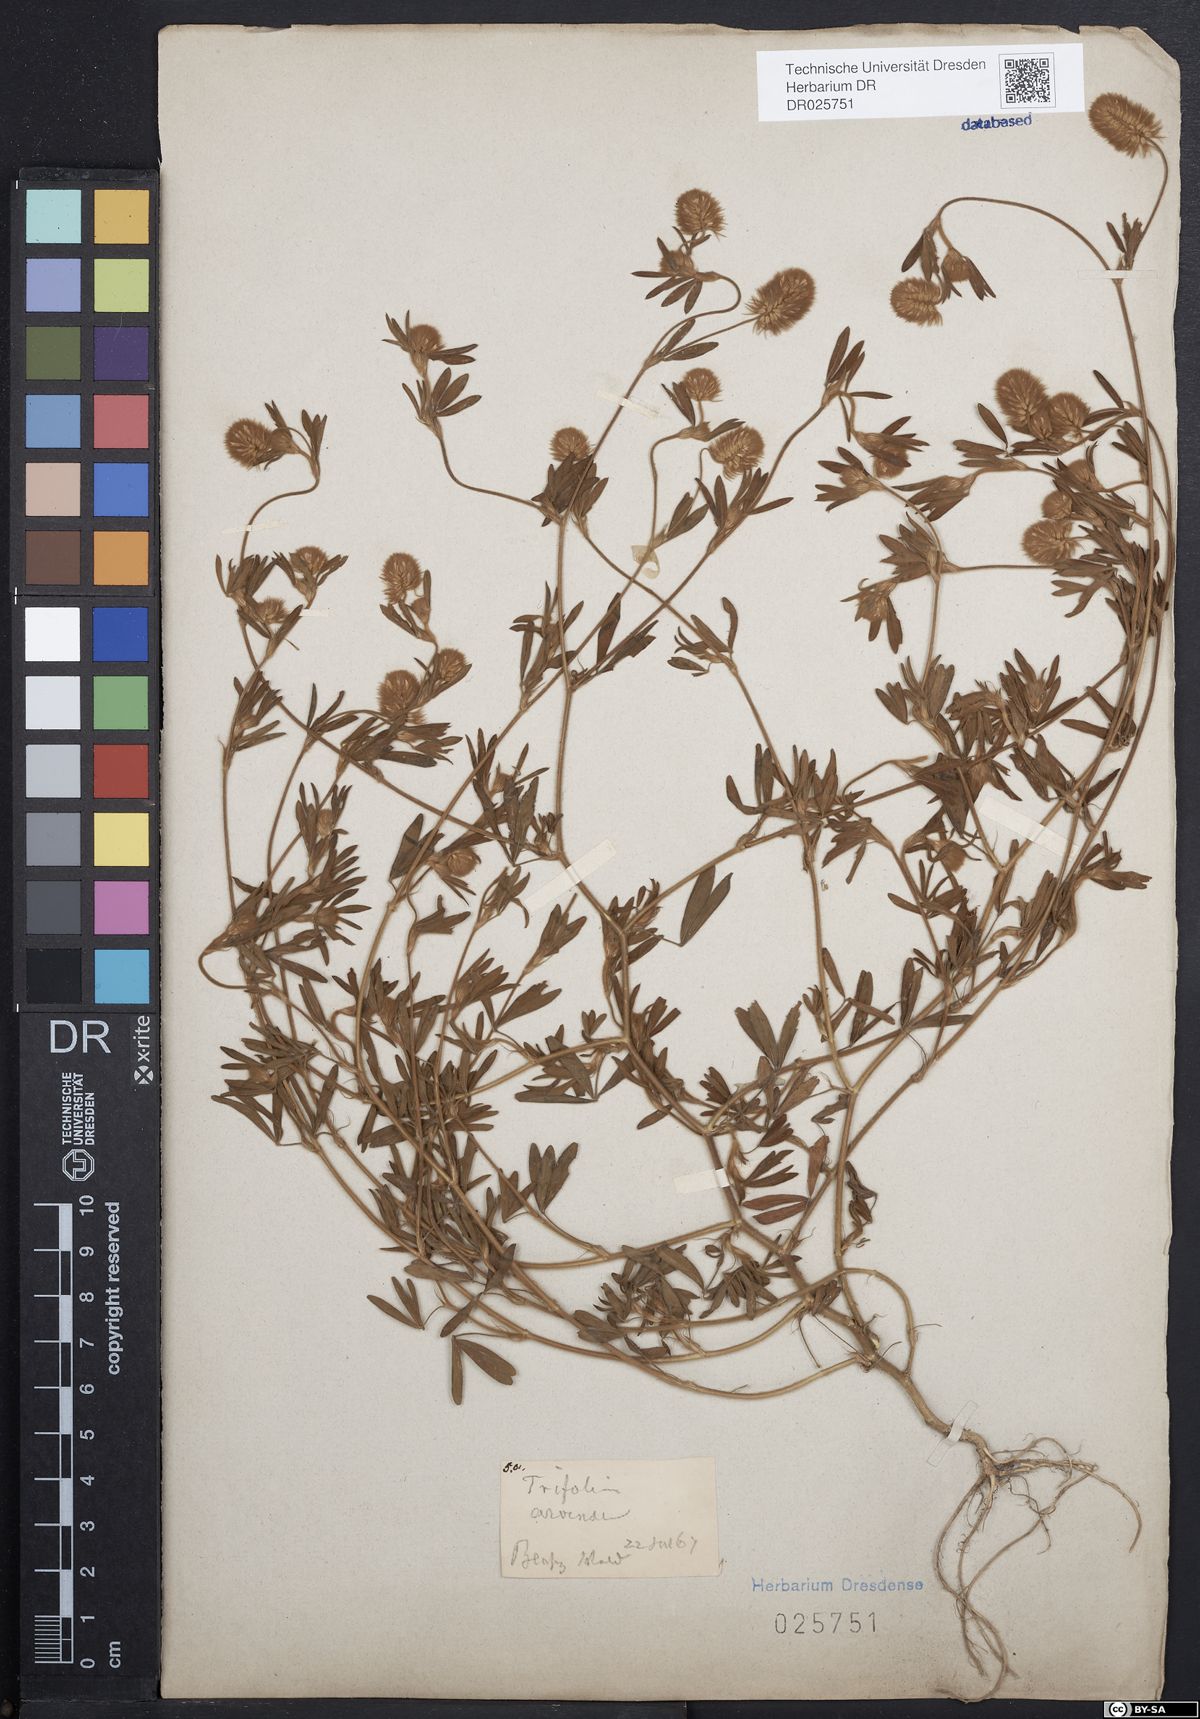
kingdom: Plantae
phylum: Tracheophyta
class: Magnoliopsida
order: Fabales
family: Fabaceae
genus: Trifolium
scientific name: Trifolium arvense
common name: Hare's-foot clover
